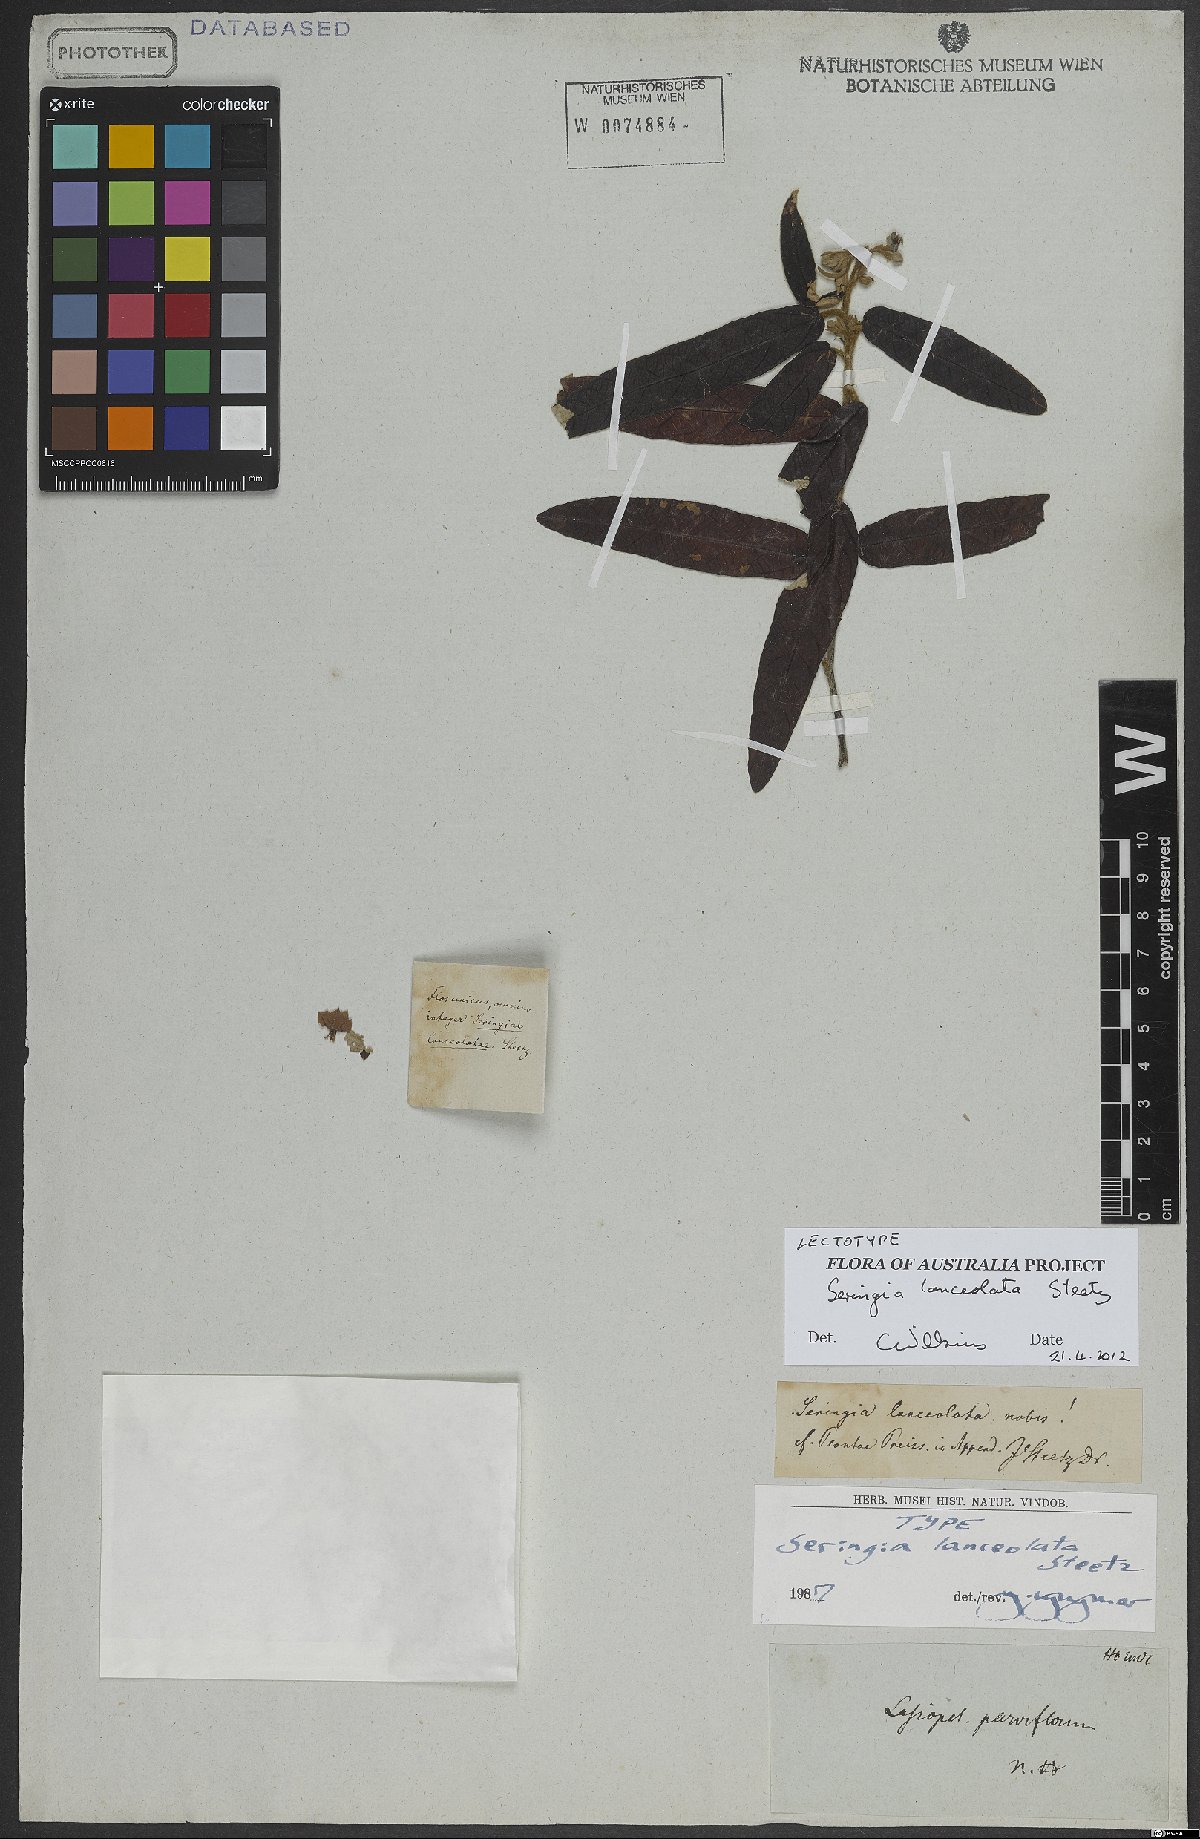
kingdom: Plantae
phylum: Tracheophyta
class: Magnoliopsida
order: Malvales
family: Malvaceae
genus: Seringia
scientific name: Seringia lanceolata
